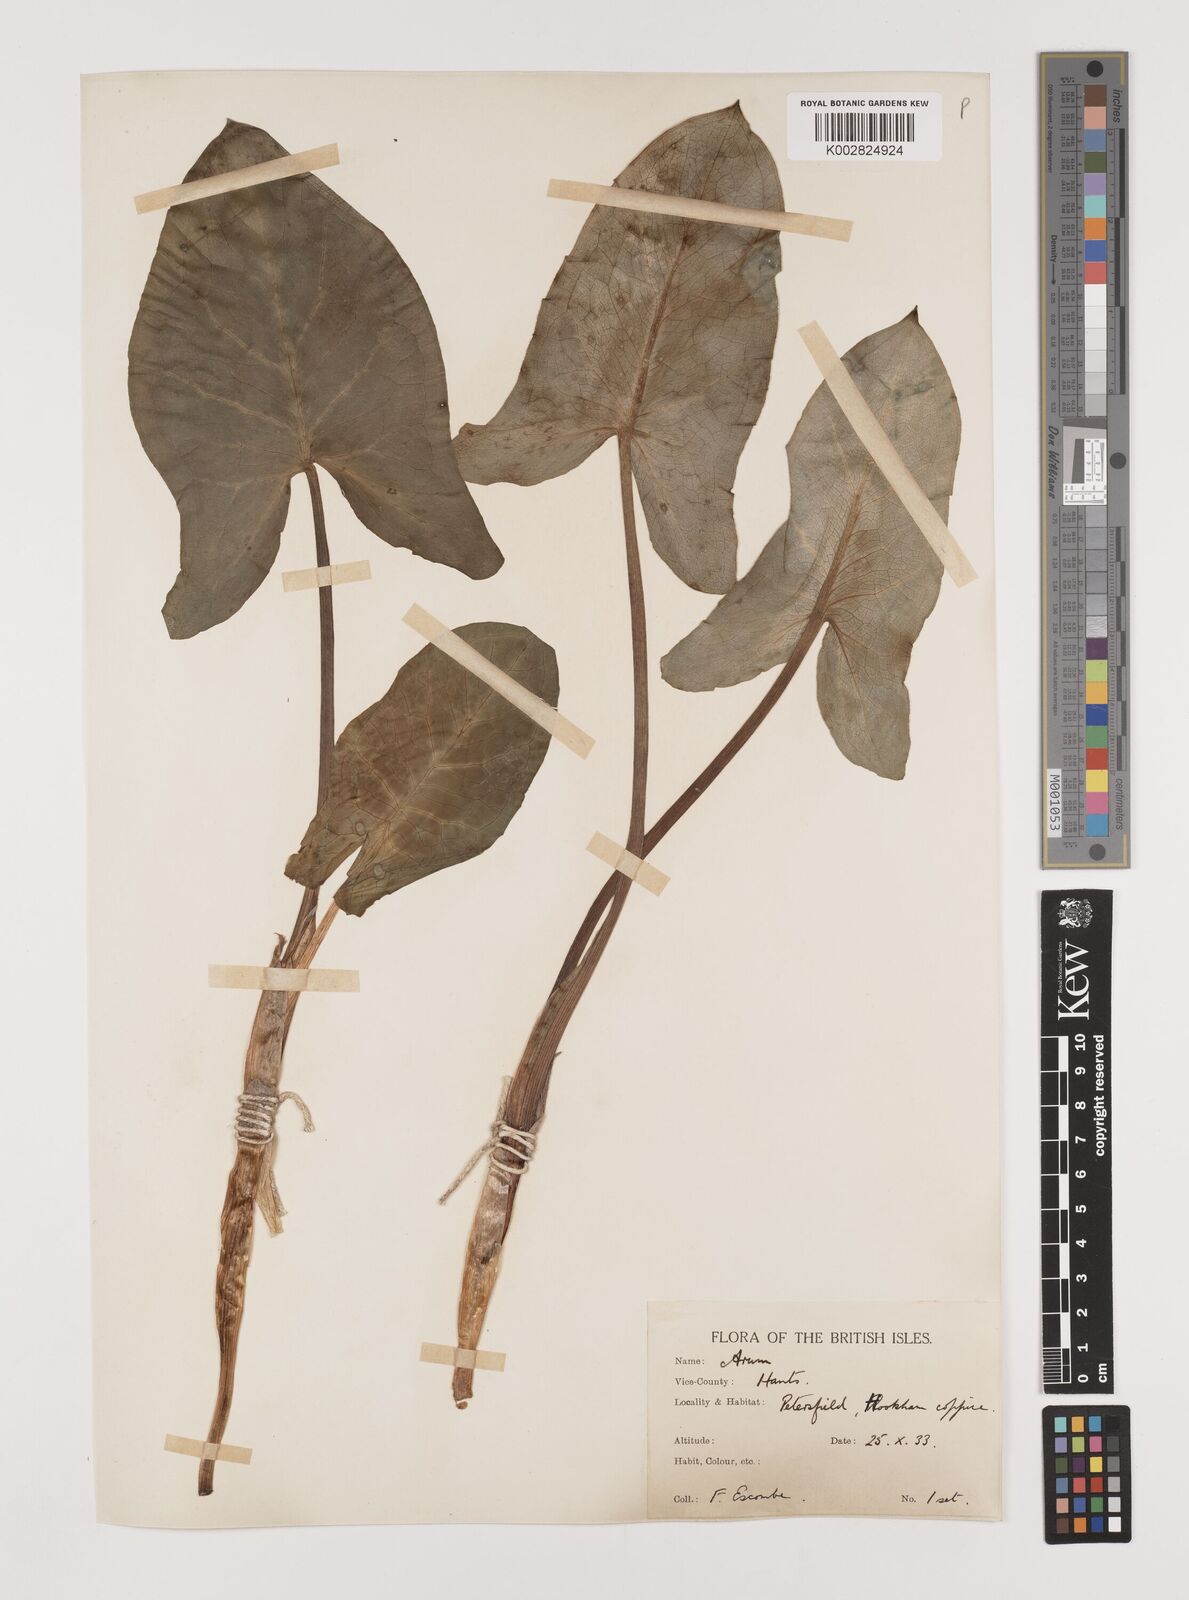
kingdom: Plantae
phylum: Tracheophyta
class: Liliopsida
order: Alismatales
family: Araceae
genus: Arum
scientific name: Arum italicum
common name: Italian lords-and-ladies
